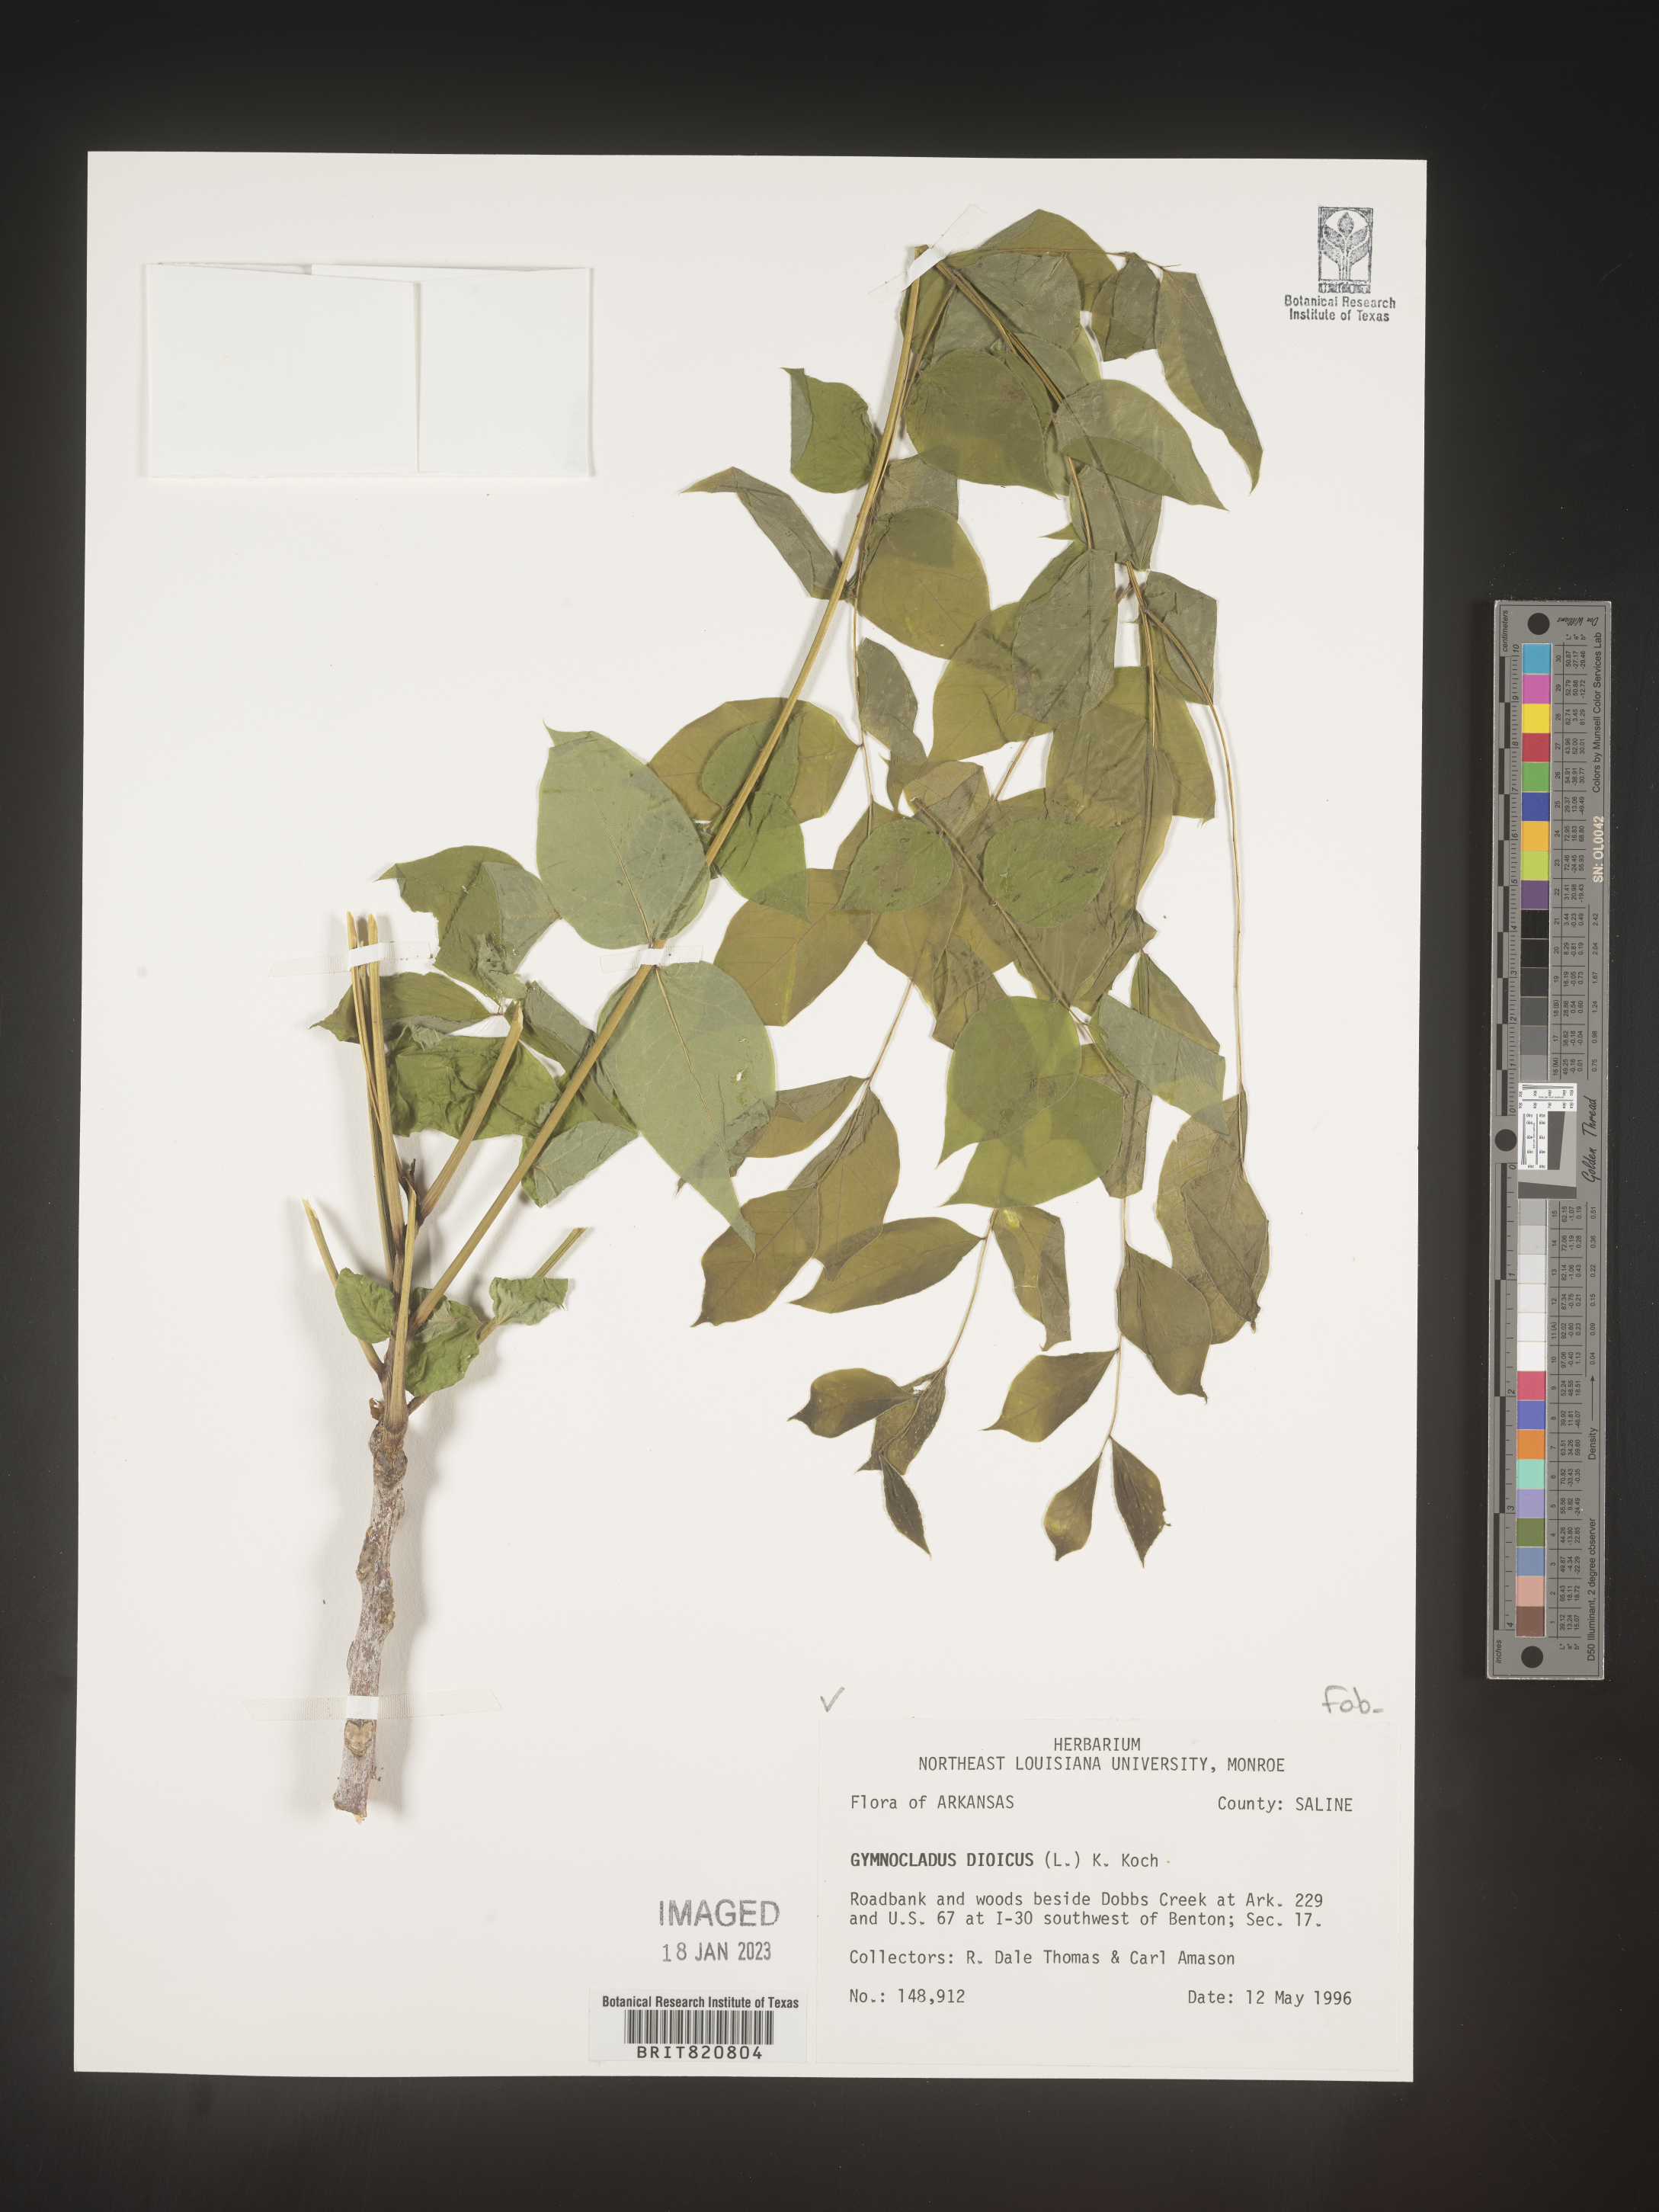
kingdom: Plantae
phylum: Tracheophyta
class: Magnoliopsida
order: Fabales
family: Fabaceae
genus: Gymnocladus
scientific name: Gymnocladus
